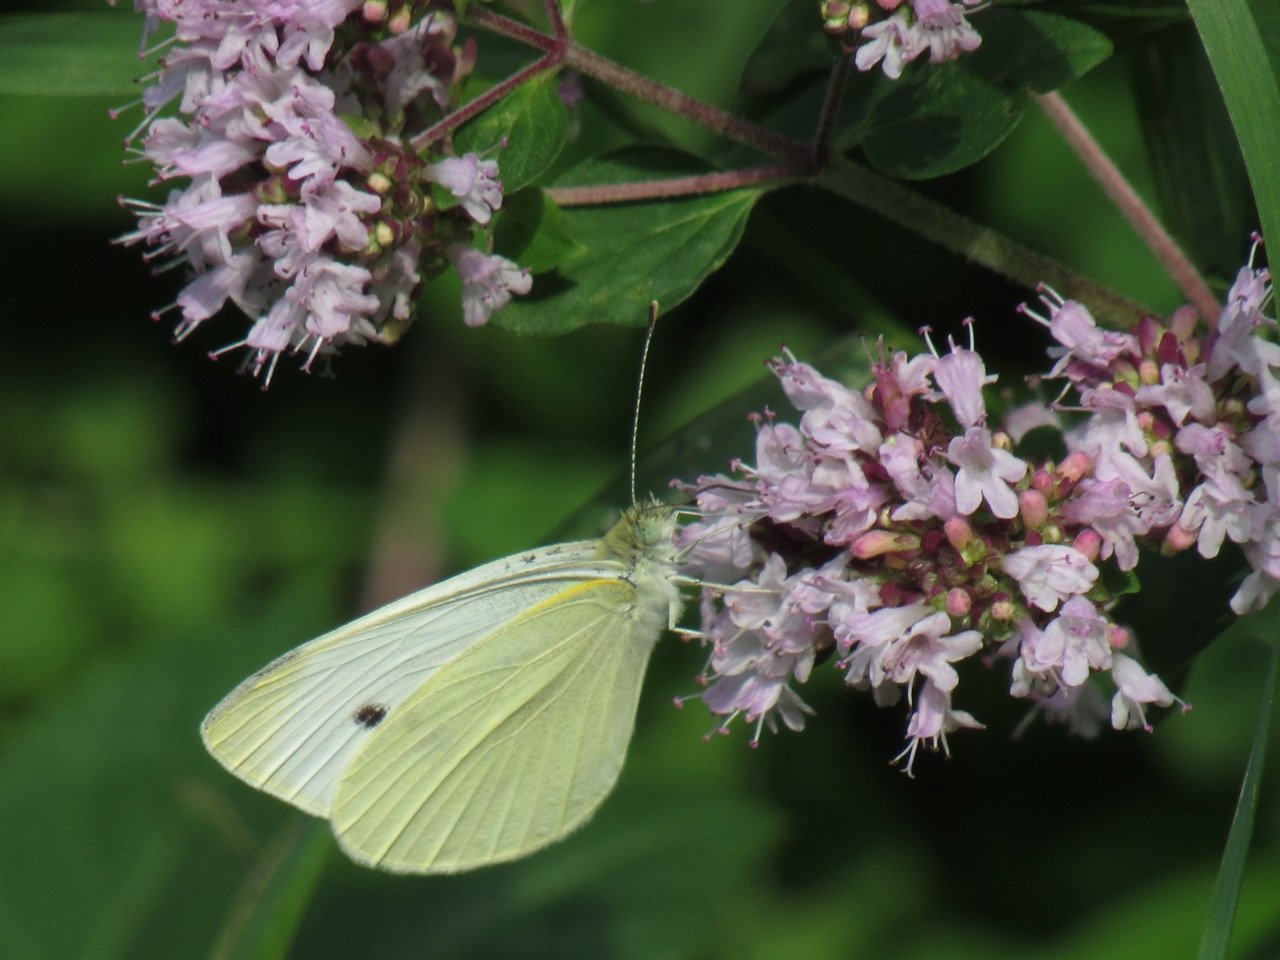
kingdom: Animalia
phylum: Arthropoda
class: Insecta
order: Lepidoptera
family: Pieridae
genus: Pieris
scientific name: Pieris rapae
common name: Cabbage White
